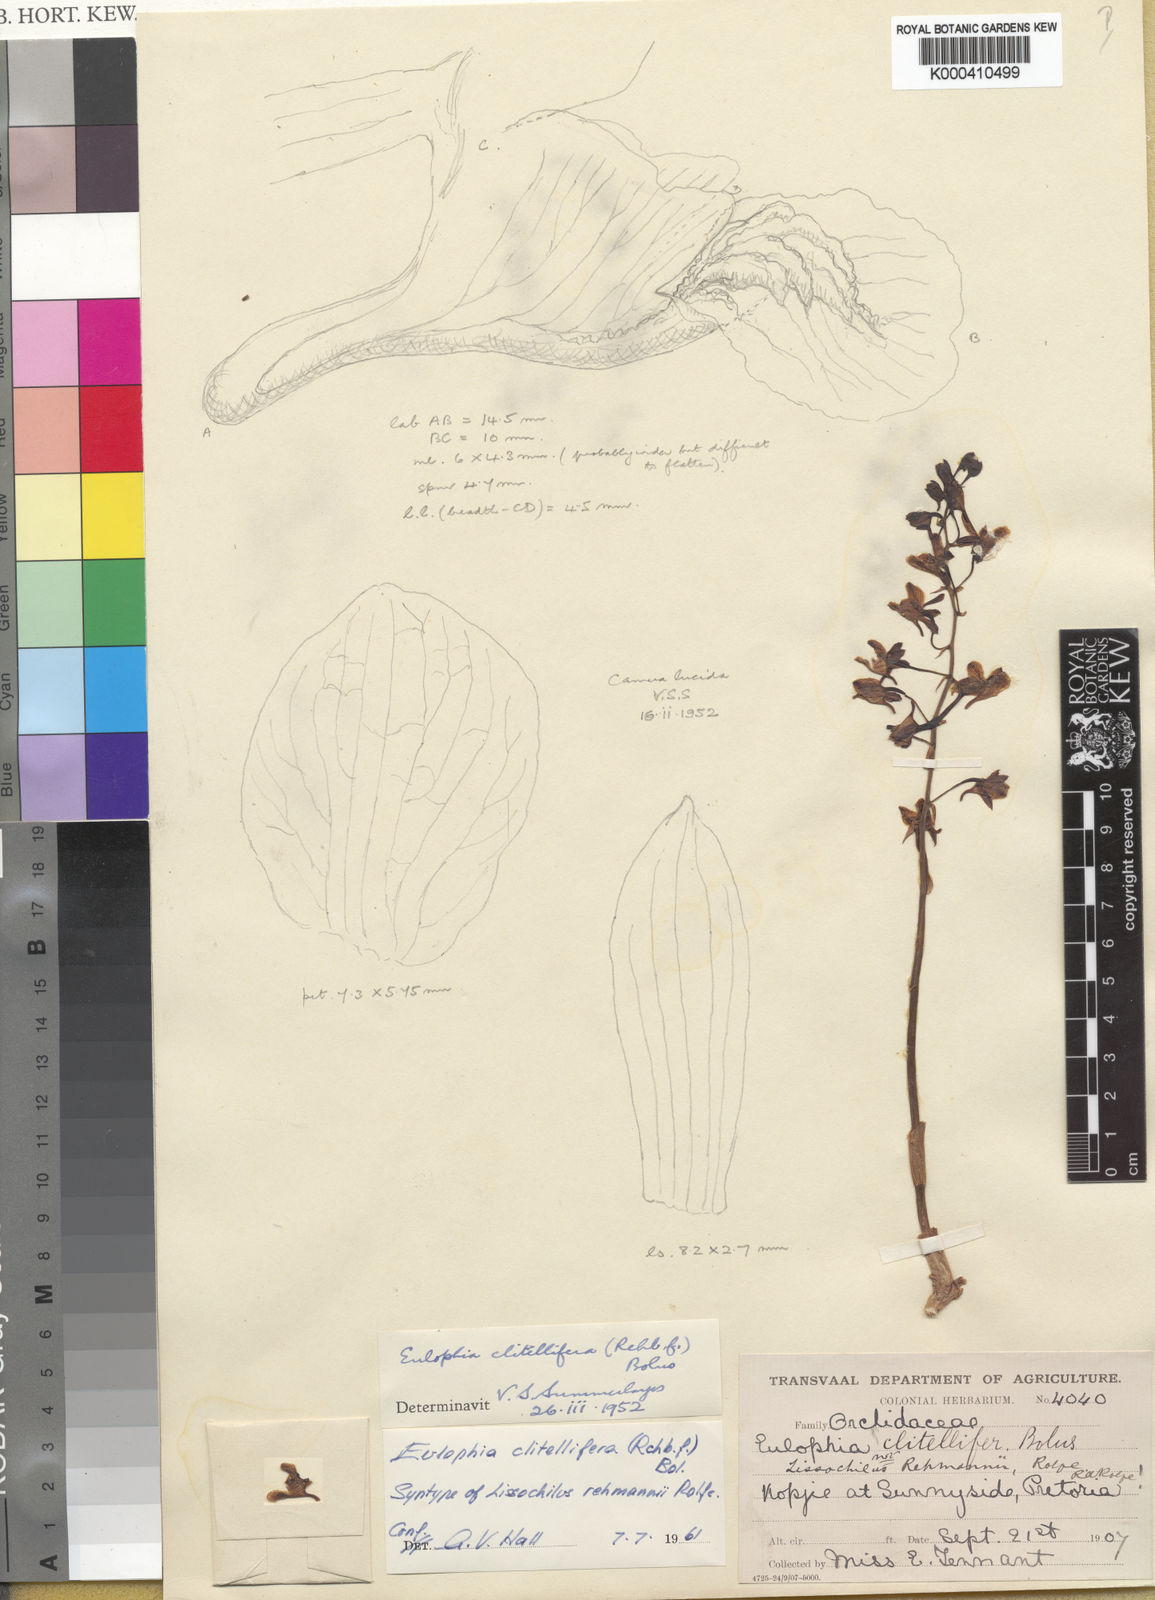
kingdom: Plantae
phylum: Tracheophyta
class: Liliopsida
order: Asparagales
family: Orchidaceae
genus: Eulophia
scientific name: Eulophia
